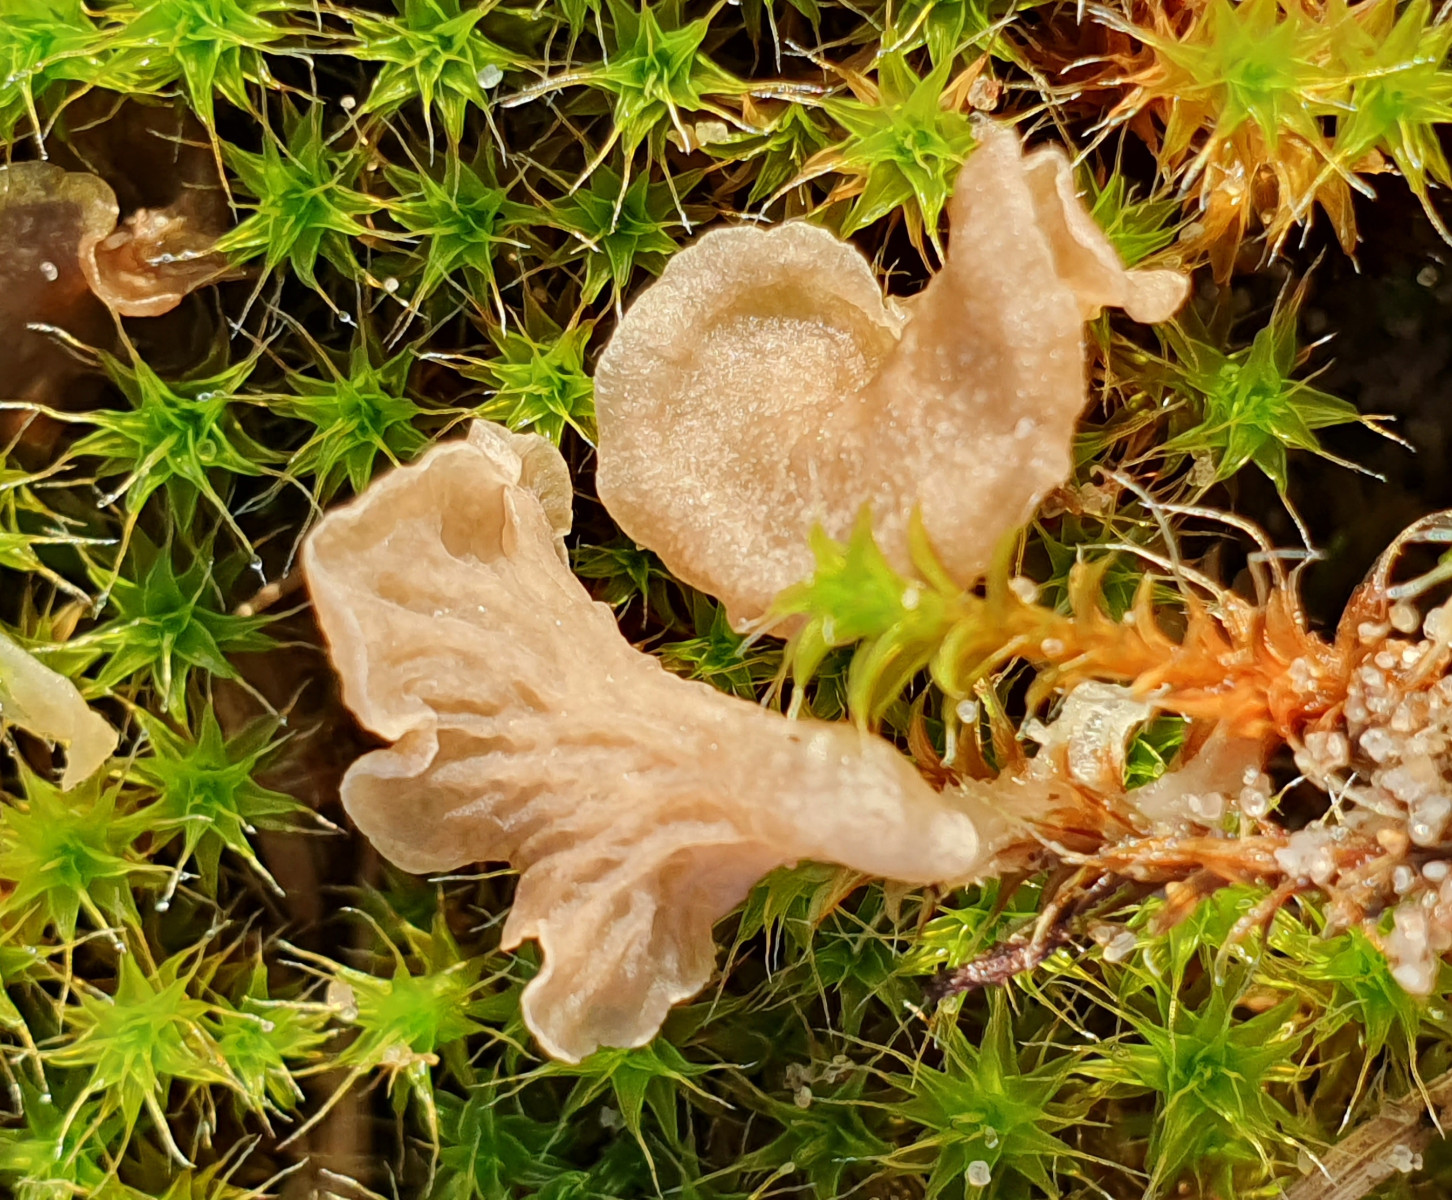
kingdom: Fungi
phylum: Basidiomycota
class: Agaricomycetes
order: Agaricales
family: Hygrophoraceae
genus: Arrhenia
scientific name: Arrhenia spathulata
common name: skæv fontænehat
